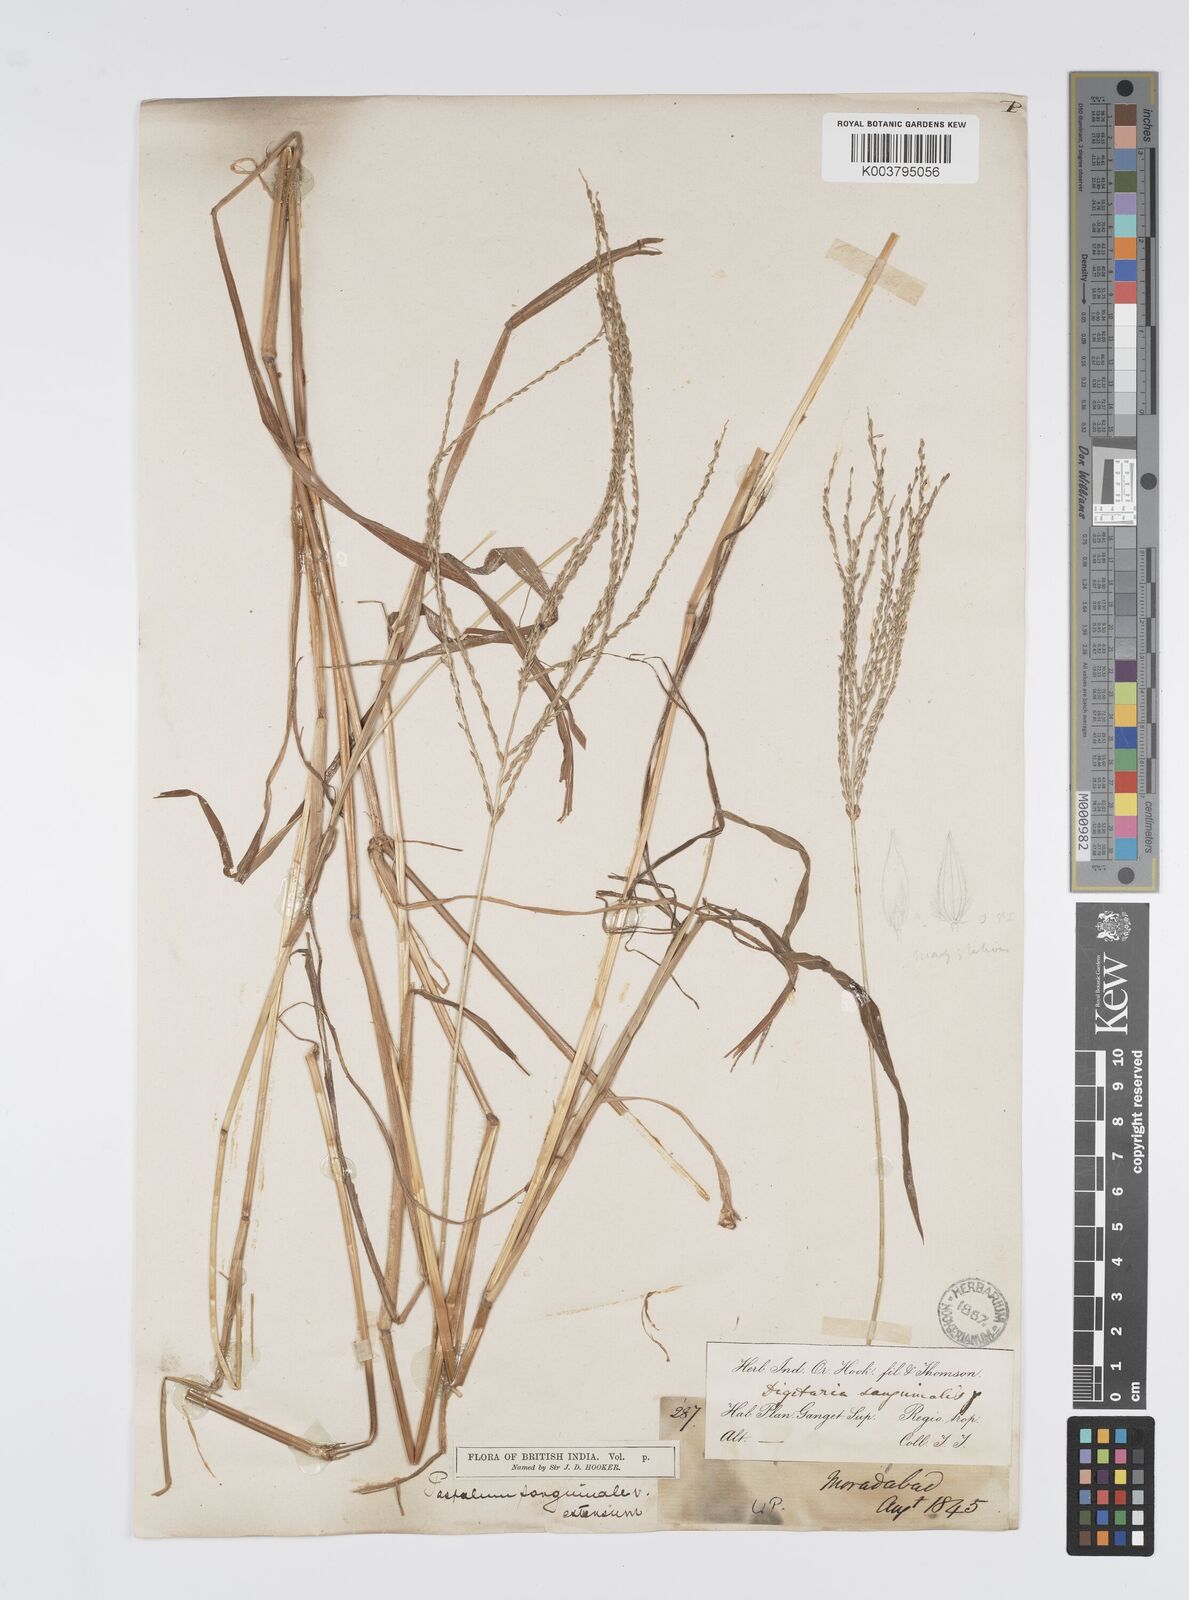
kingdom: Plantae
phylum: Tracheophyta
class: Liliopsida
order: Poales
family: Poaceae
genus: Digitaria
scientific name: Digitaria setigera
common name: East indian crabgrass
